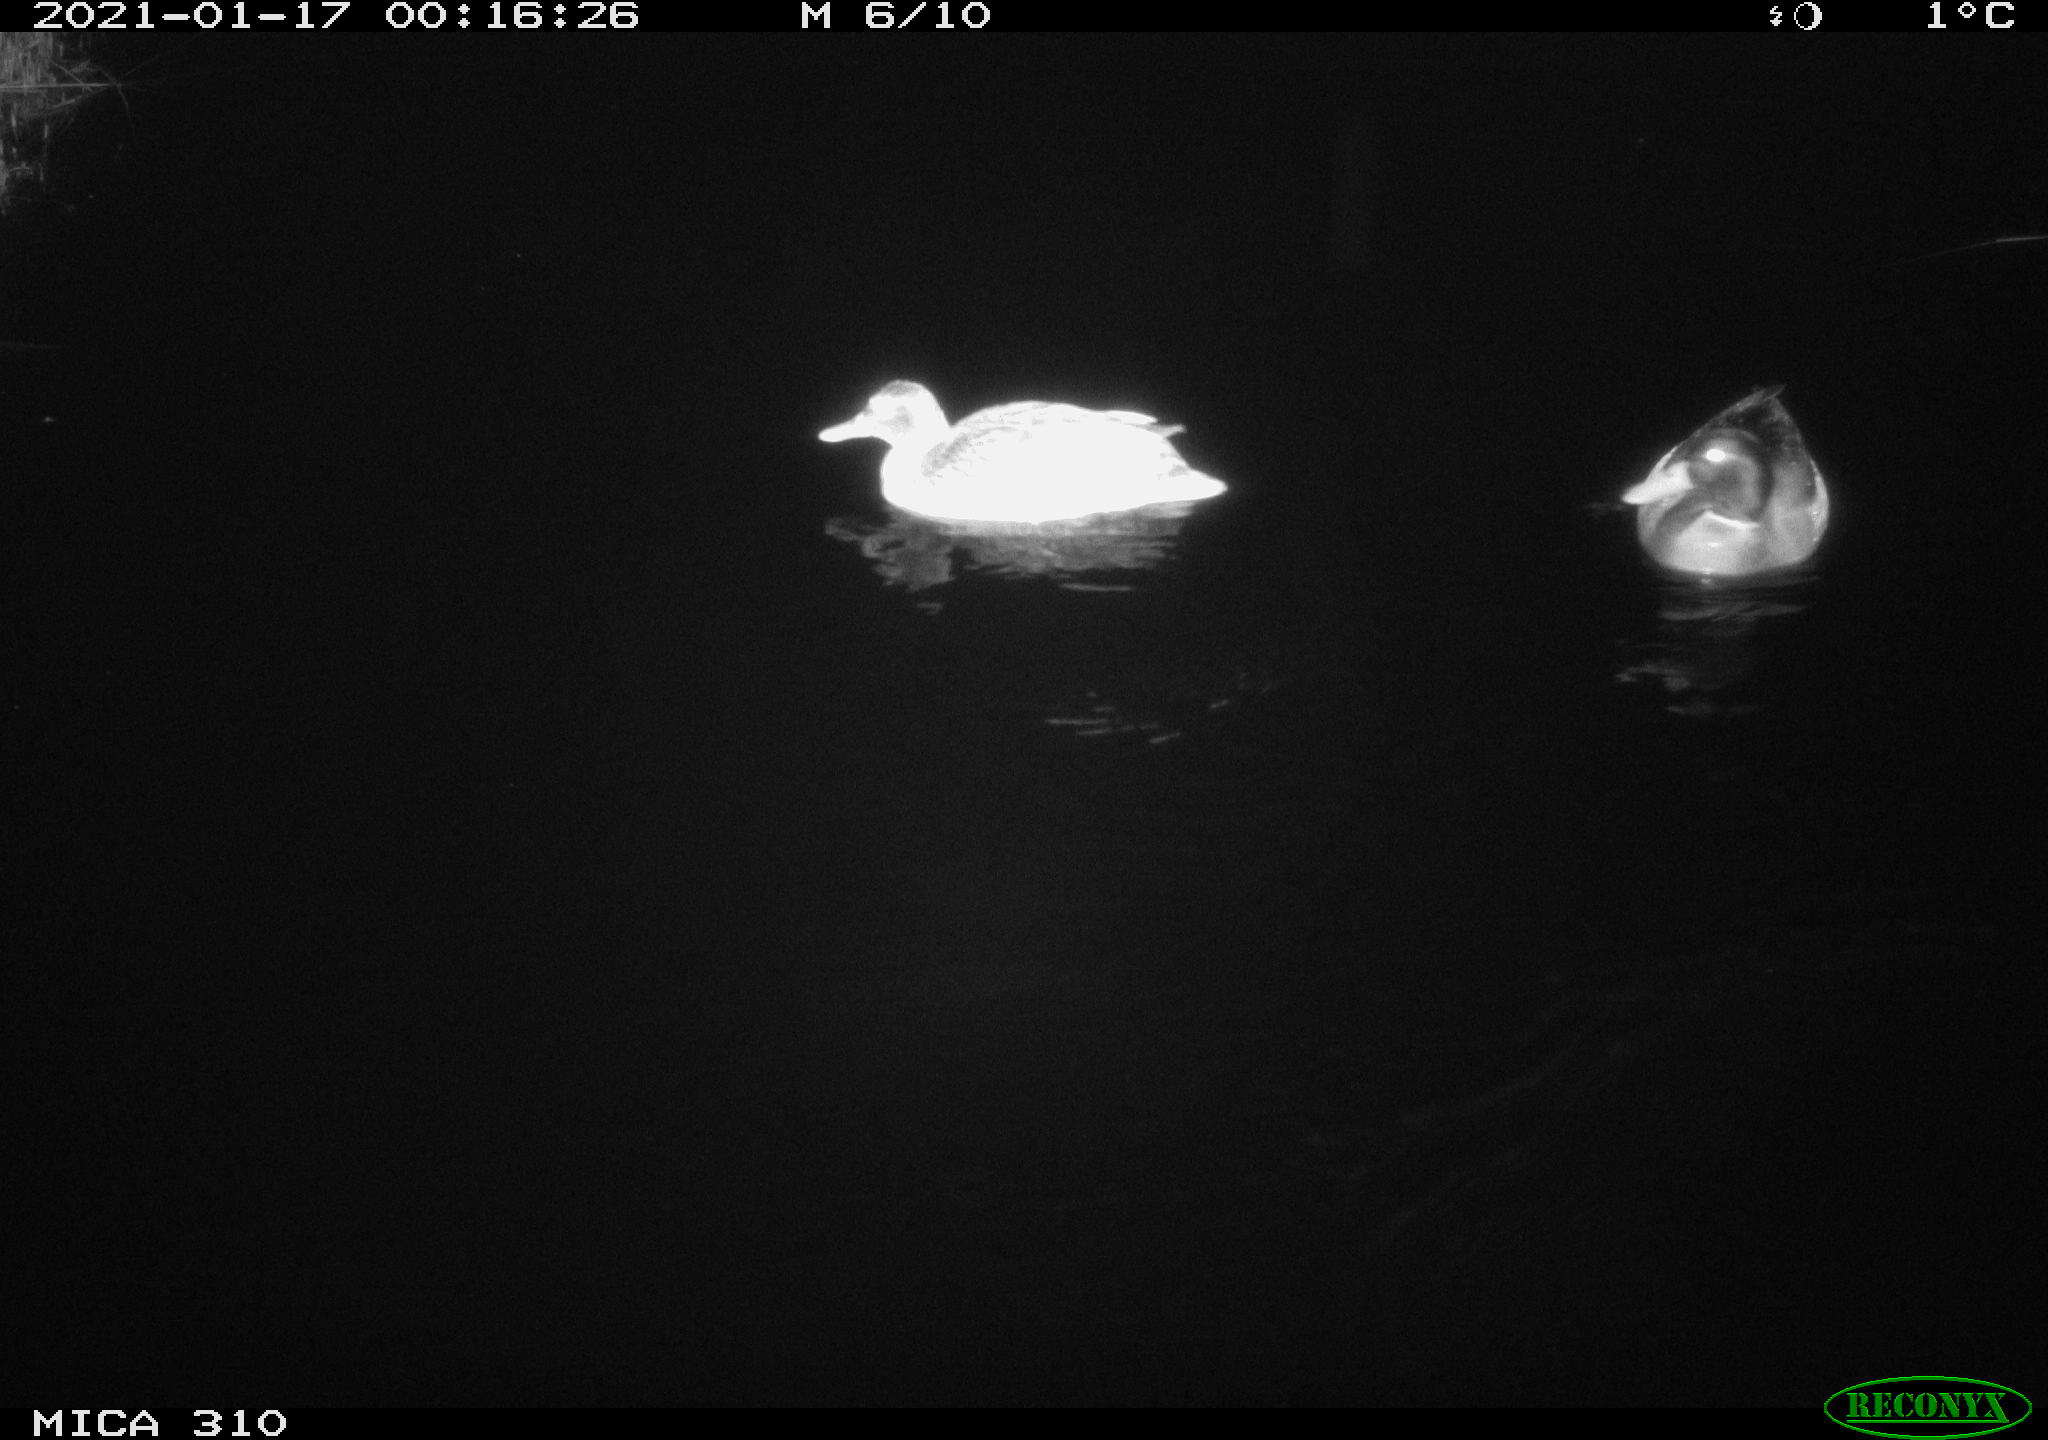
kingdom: Animalia
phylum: Chordata
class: Aves
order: Anseriformes
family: Anatidae
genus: Anas
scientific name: Anas platyrhynchos
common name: Mallard
